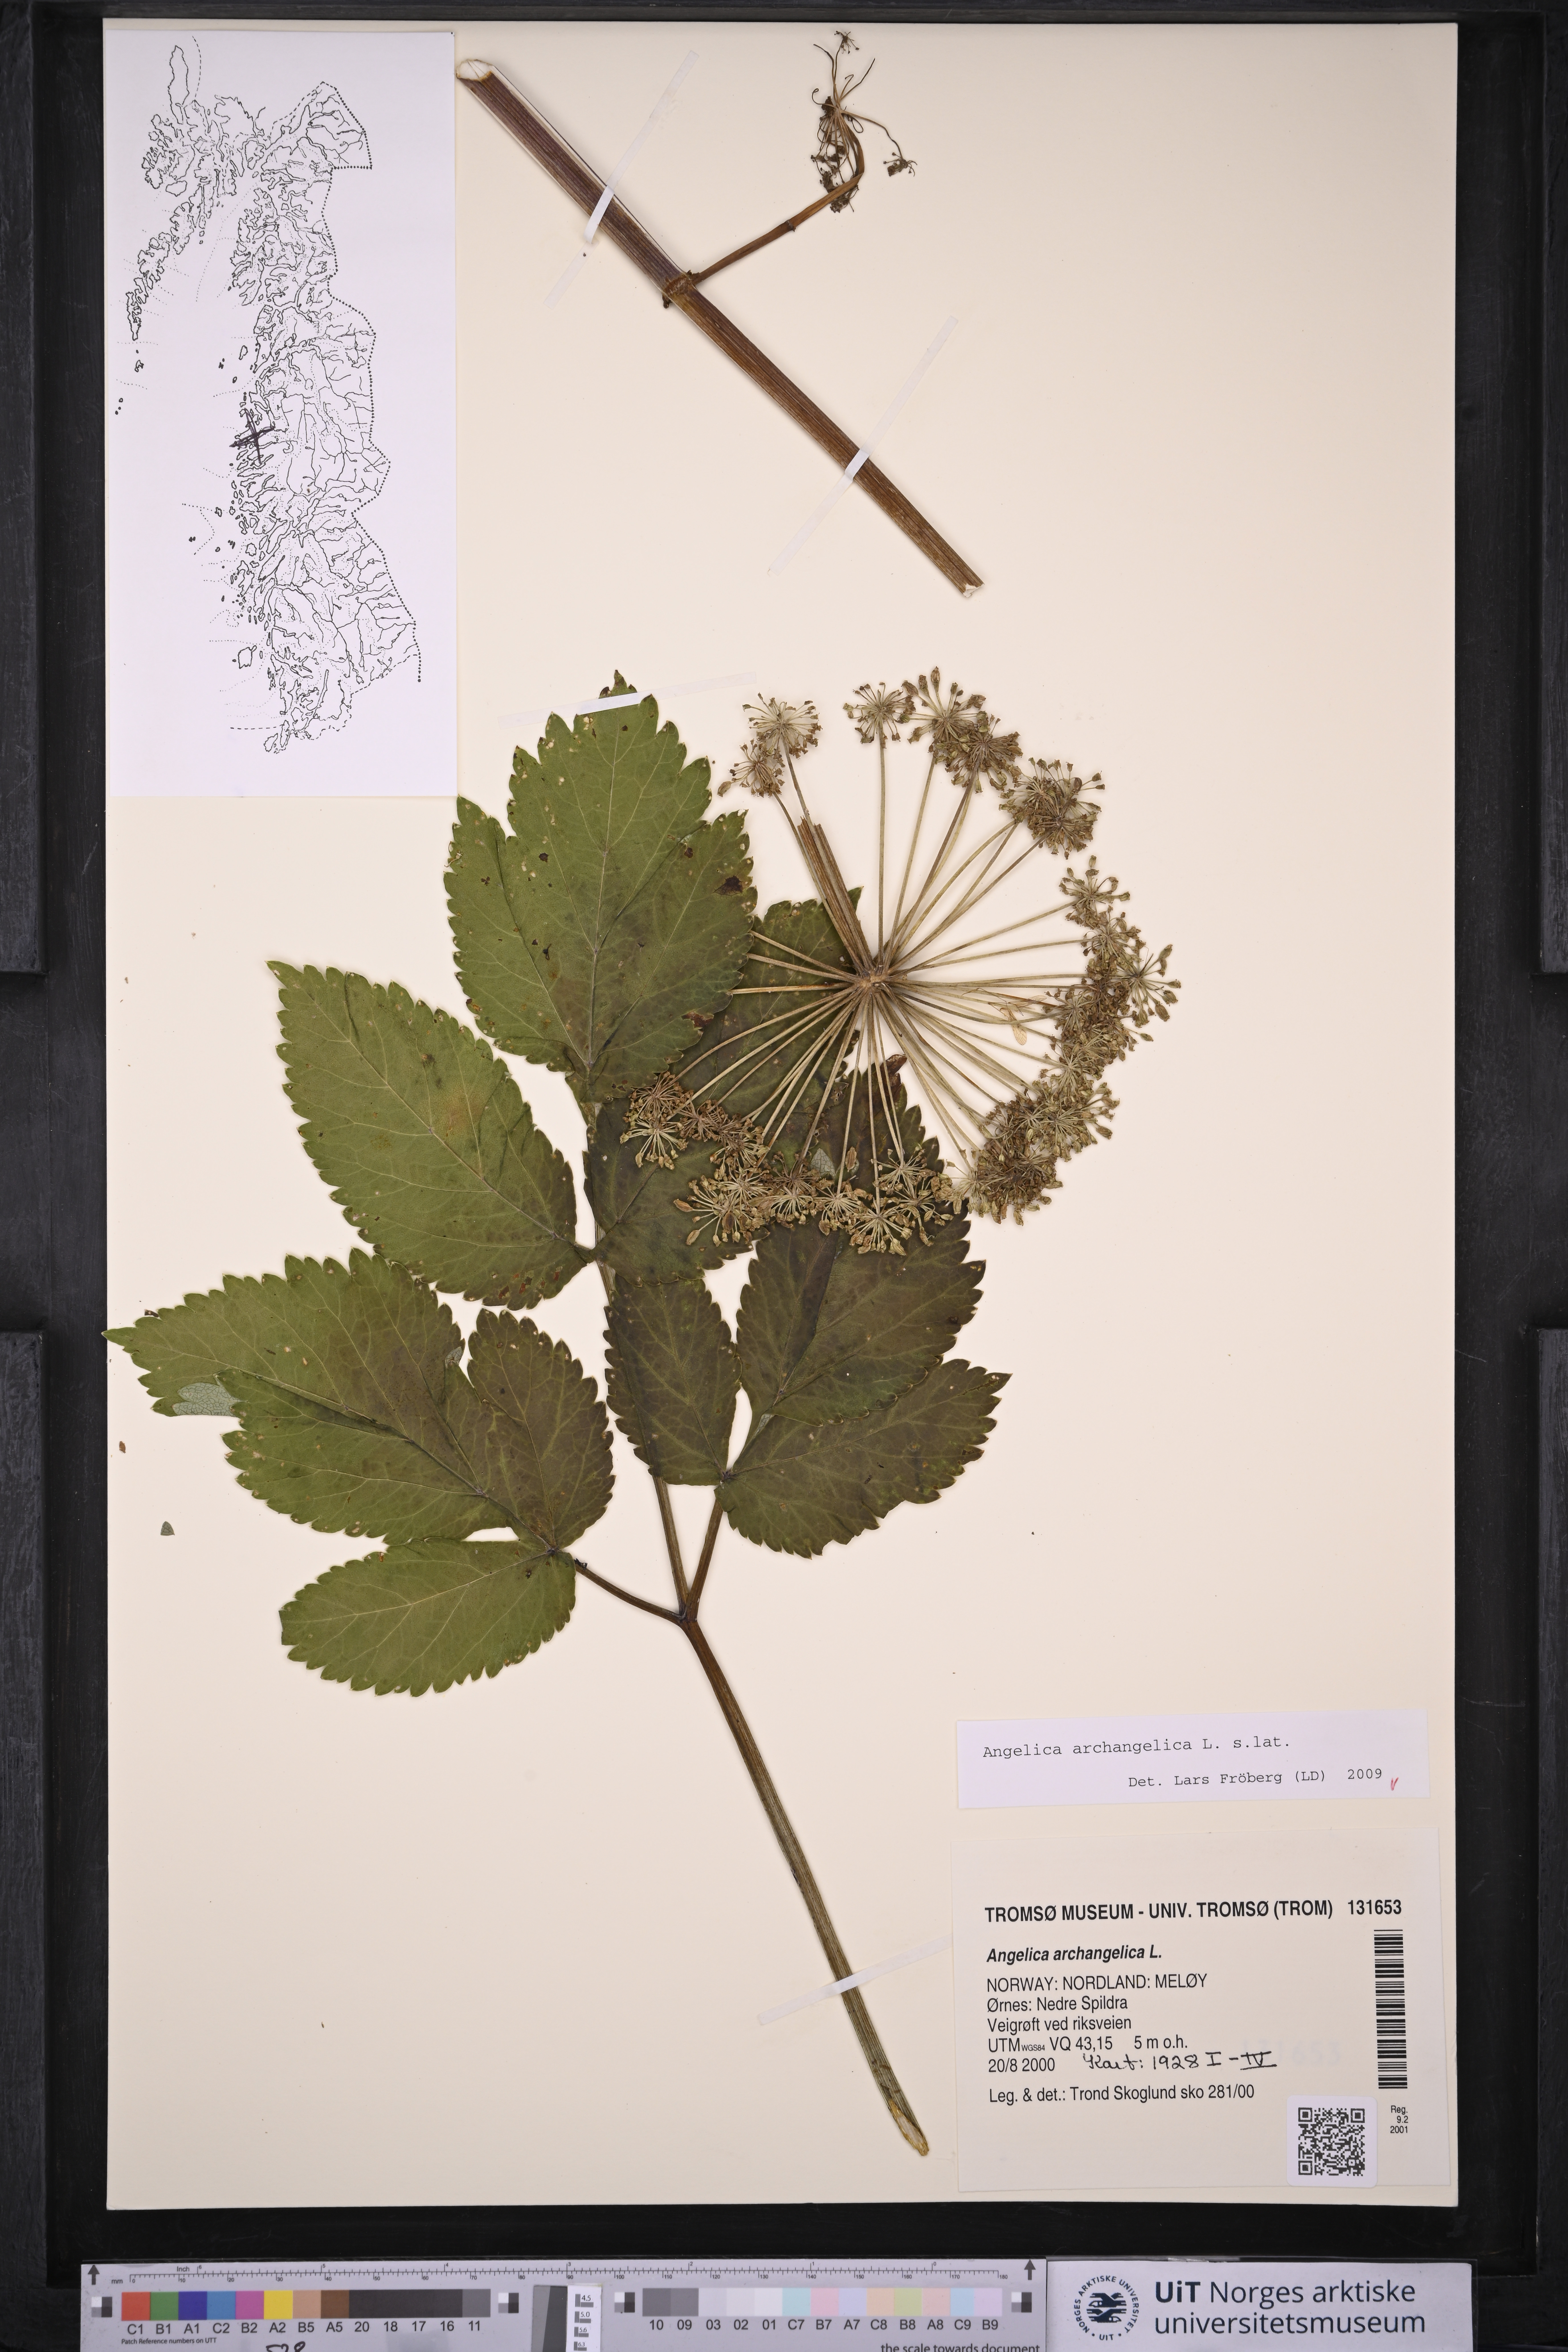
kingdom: Plantae
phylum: Tracheophyta
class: Magnoliopsida
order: Apiales
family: Apiaceae
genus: Angelica
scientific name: Angelica archangelica
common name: Garden angelica
